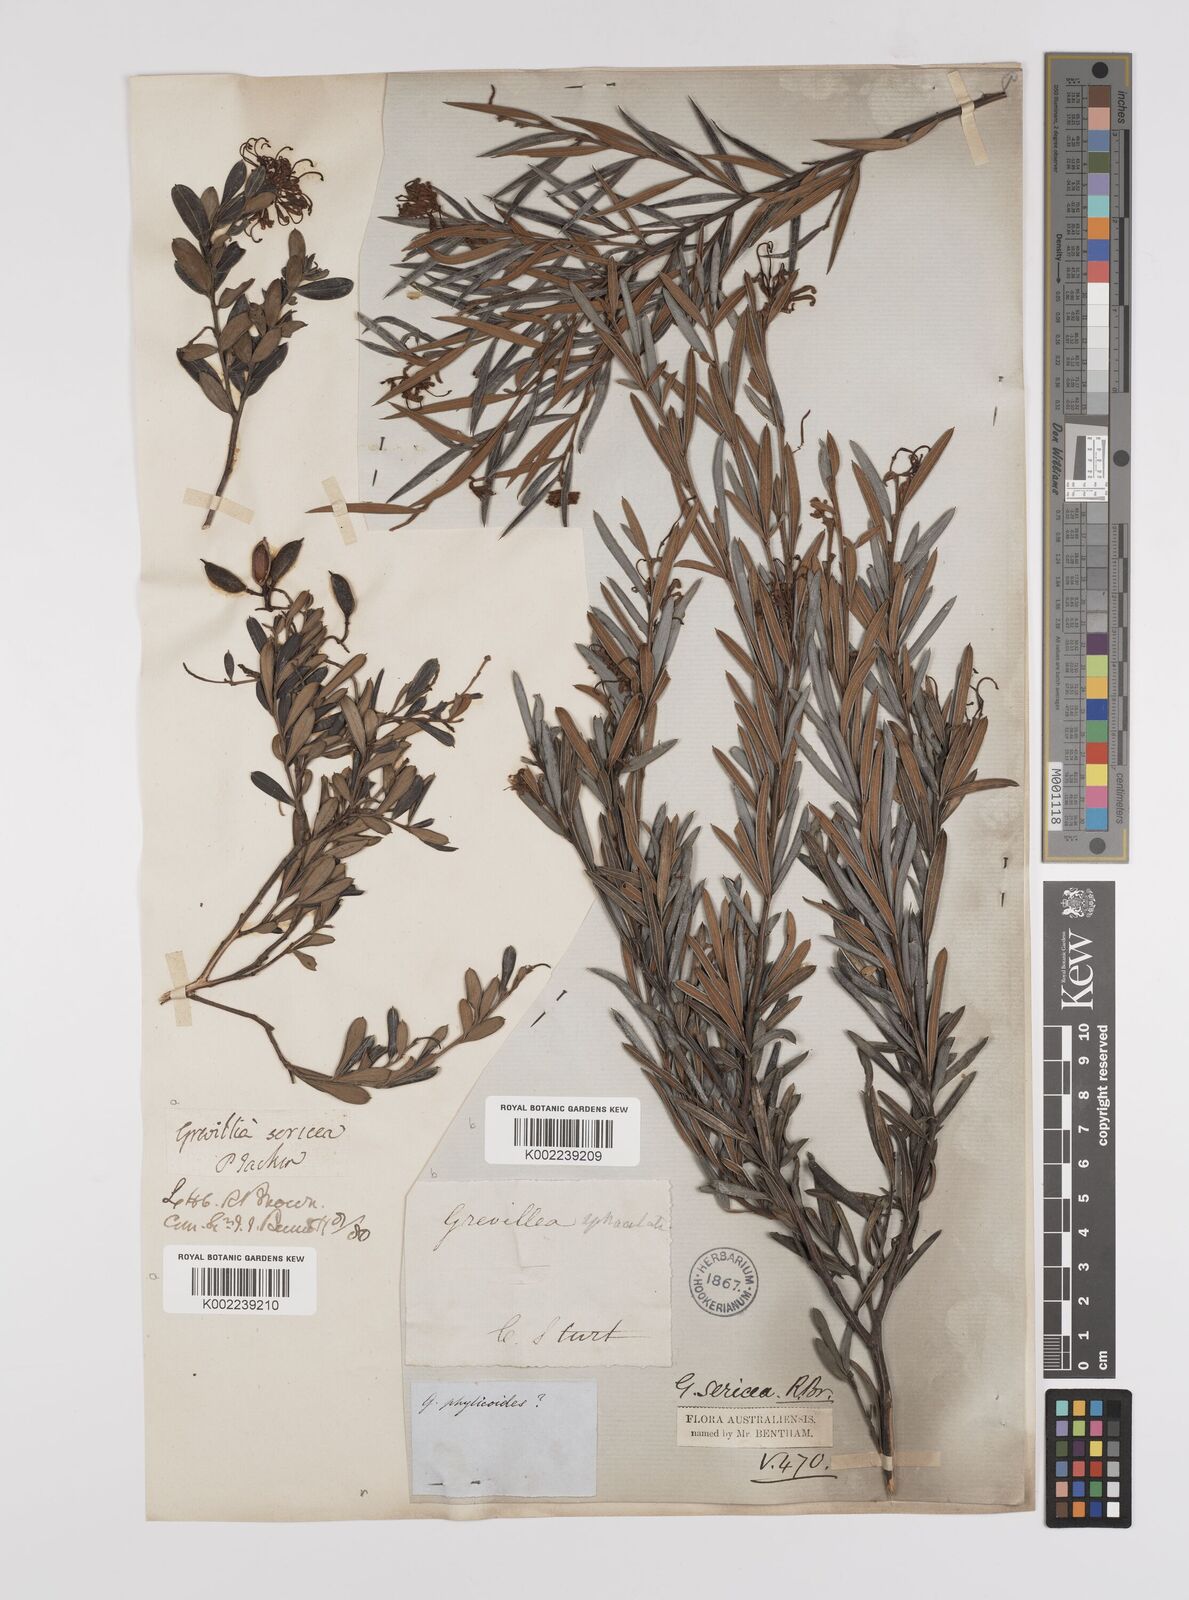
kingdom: Plantae
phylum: Tracheophyta
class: Magnoliopsida
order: Proteales
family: Proteaceae
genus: Grevillea
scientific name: Grevillea sericea
